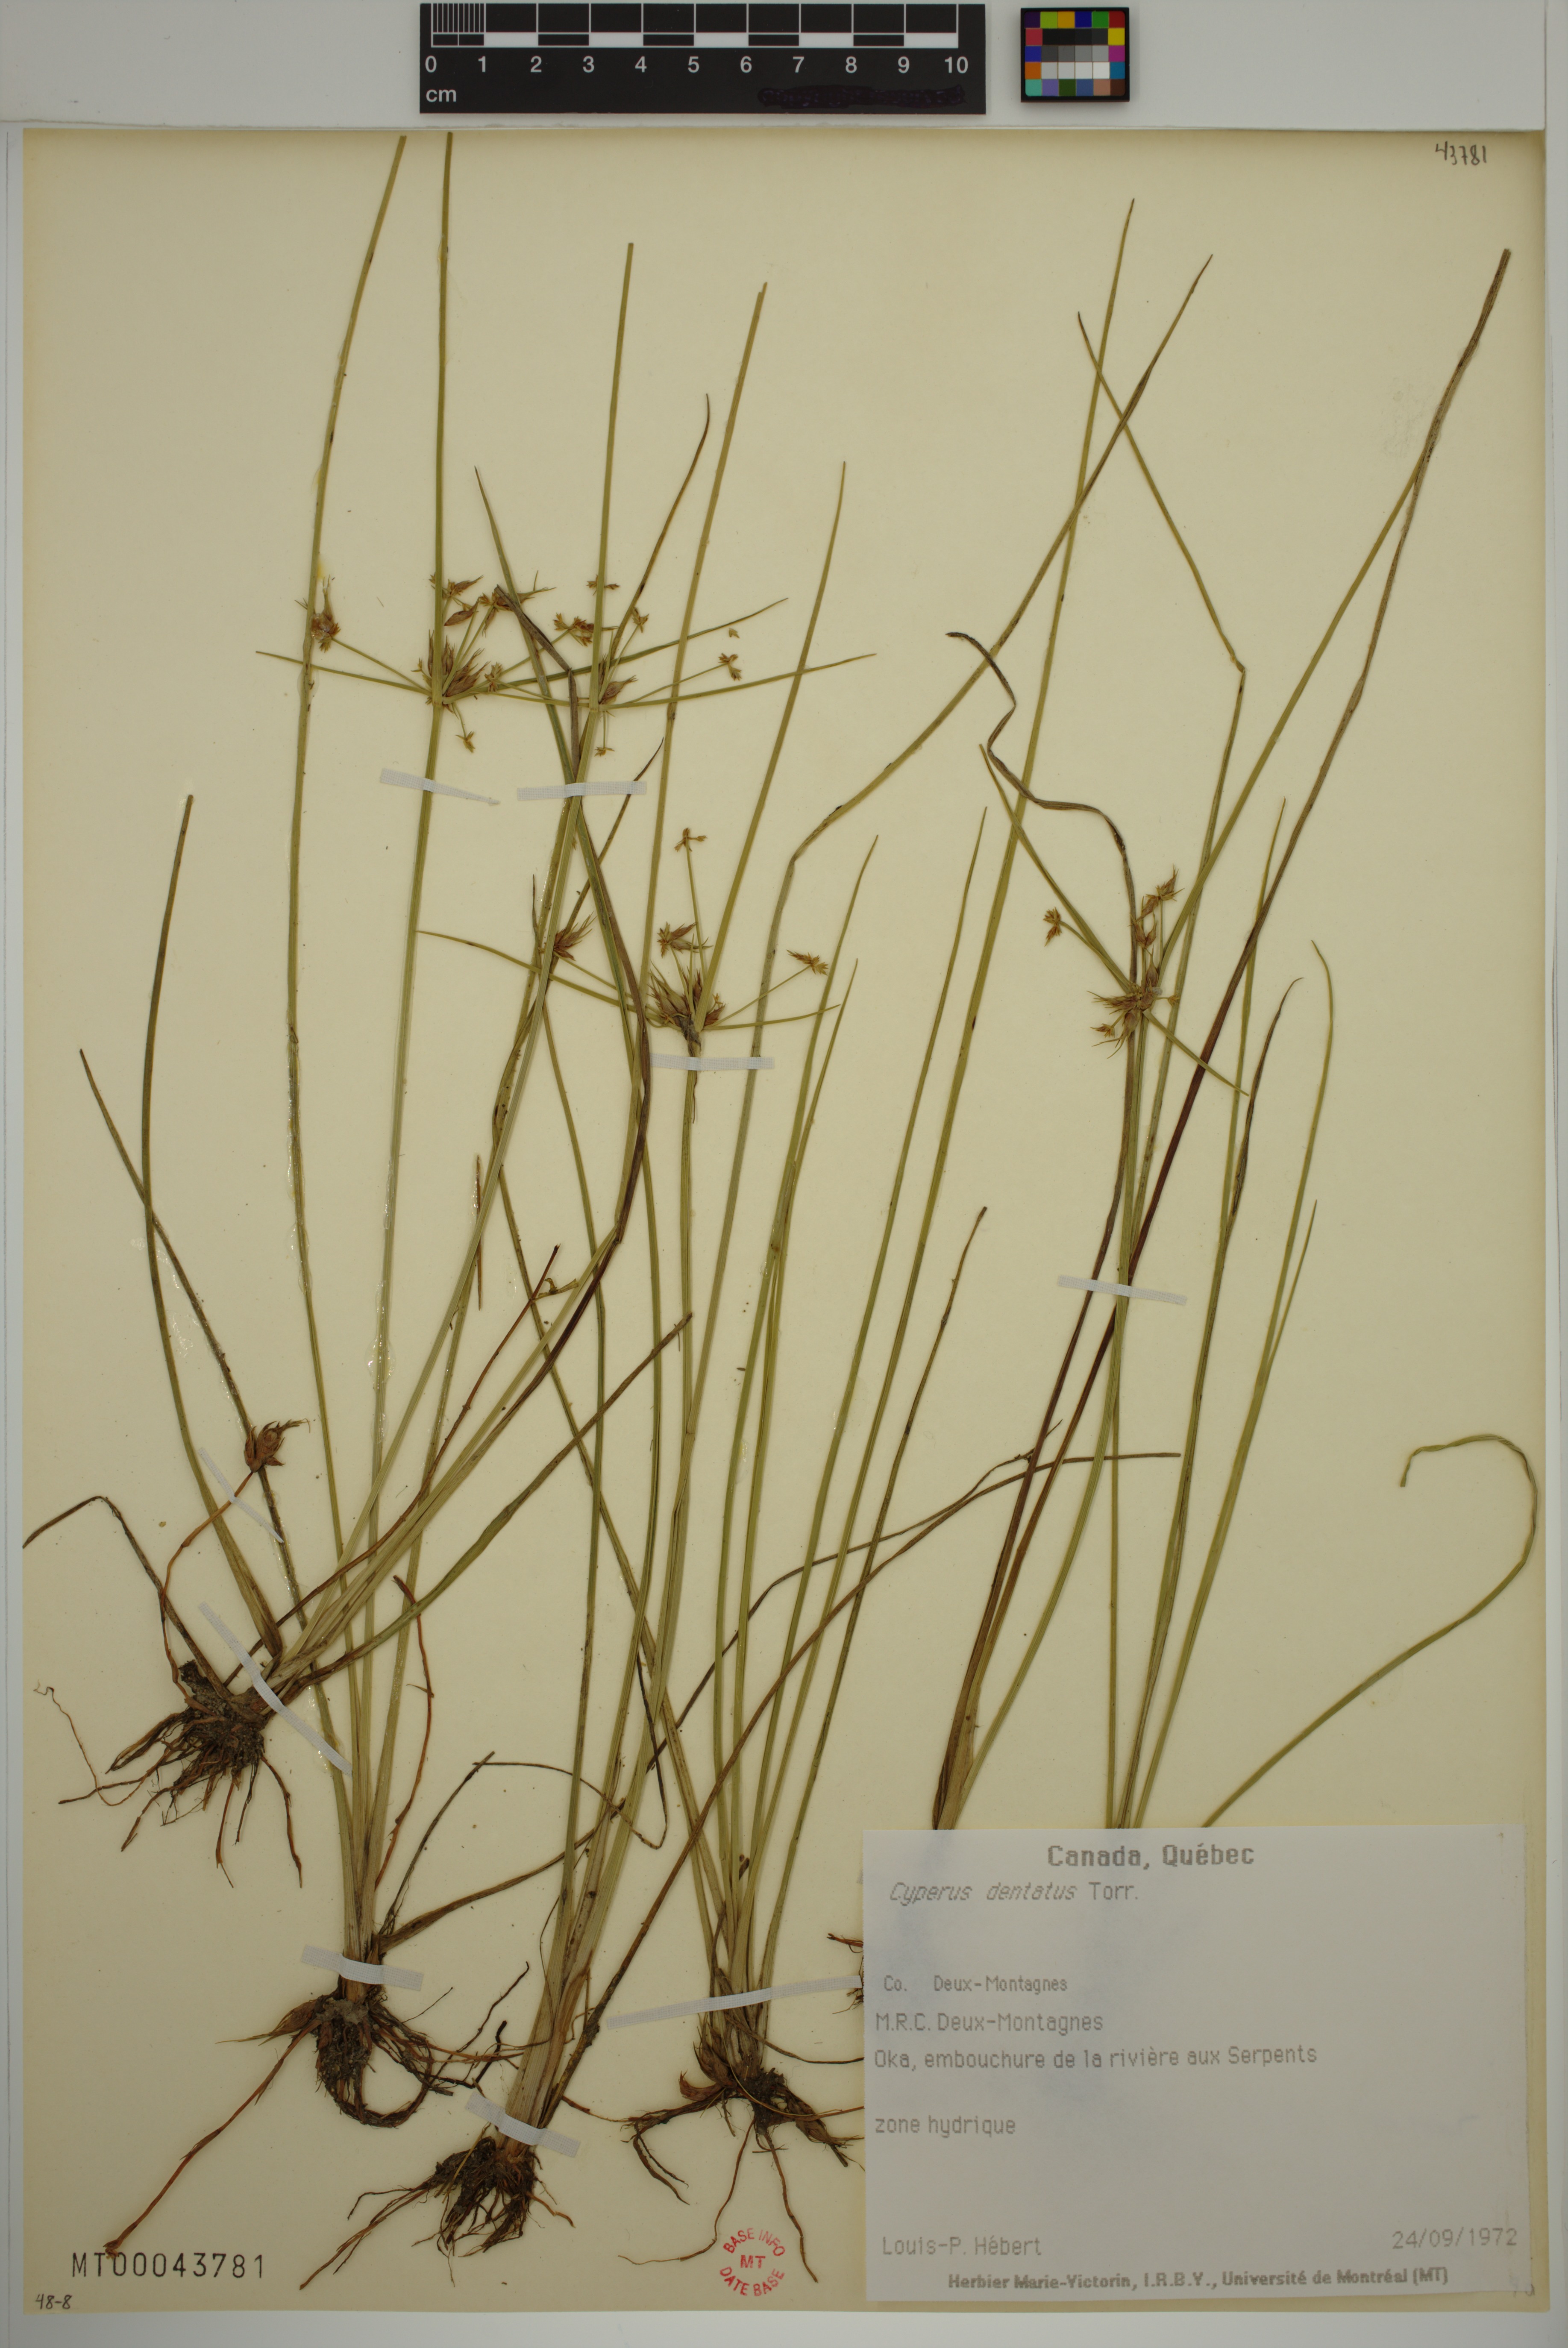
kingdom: Plantae
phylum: Tracheophyta
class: Liliopsida
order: Poales
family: Cyperaceae
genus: Cyperus
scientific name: Cyperus dentatus
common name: Dentate umbrella sedge
